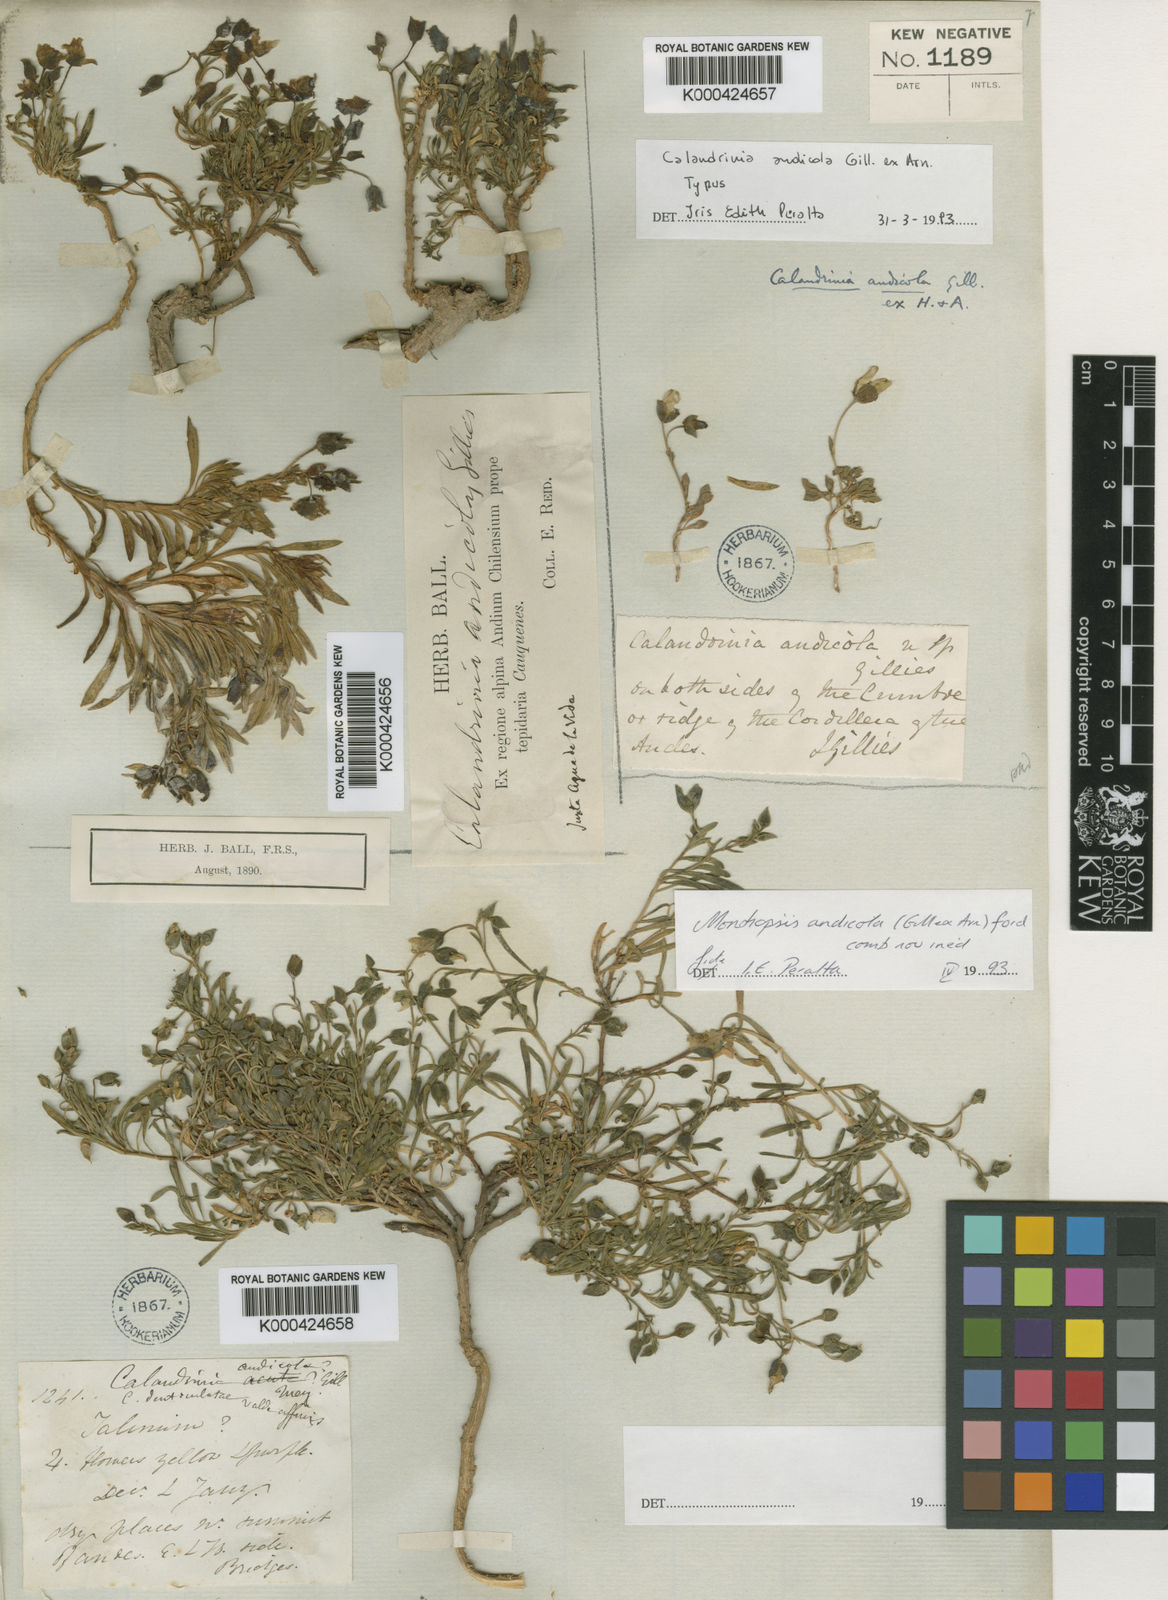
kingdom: Plantae
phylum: Tracheophyta
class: Magnoliopsida
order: Caryophyllales
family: Montiaceae
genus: Montiopsis
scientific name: Montiopsis andicola
